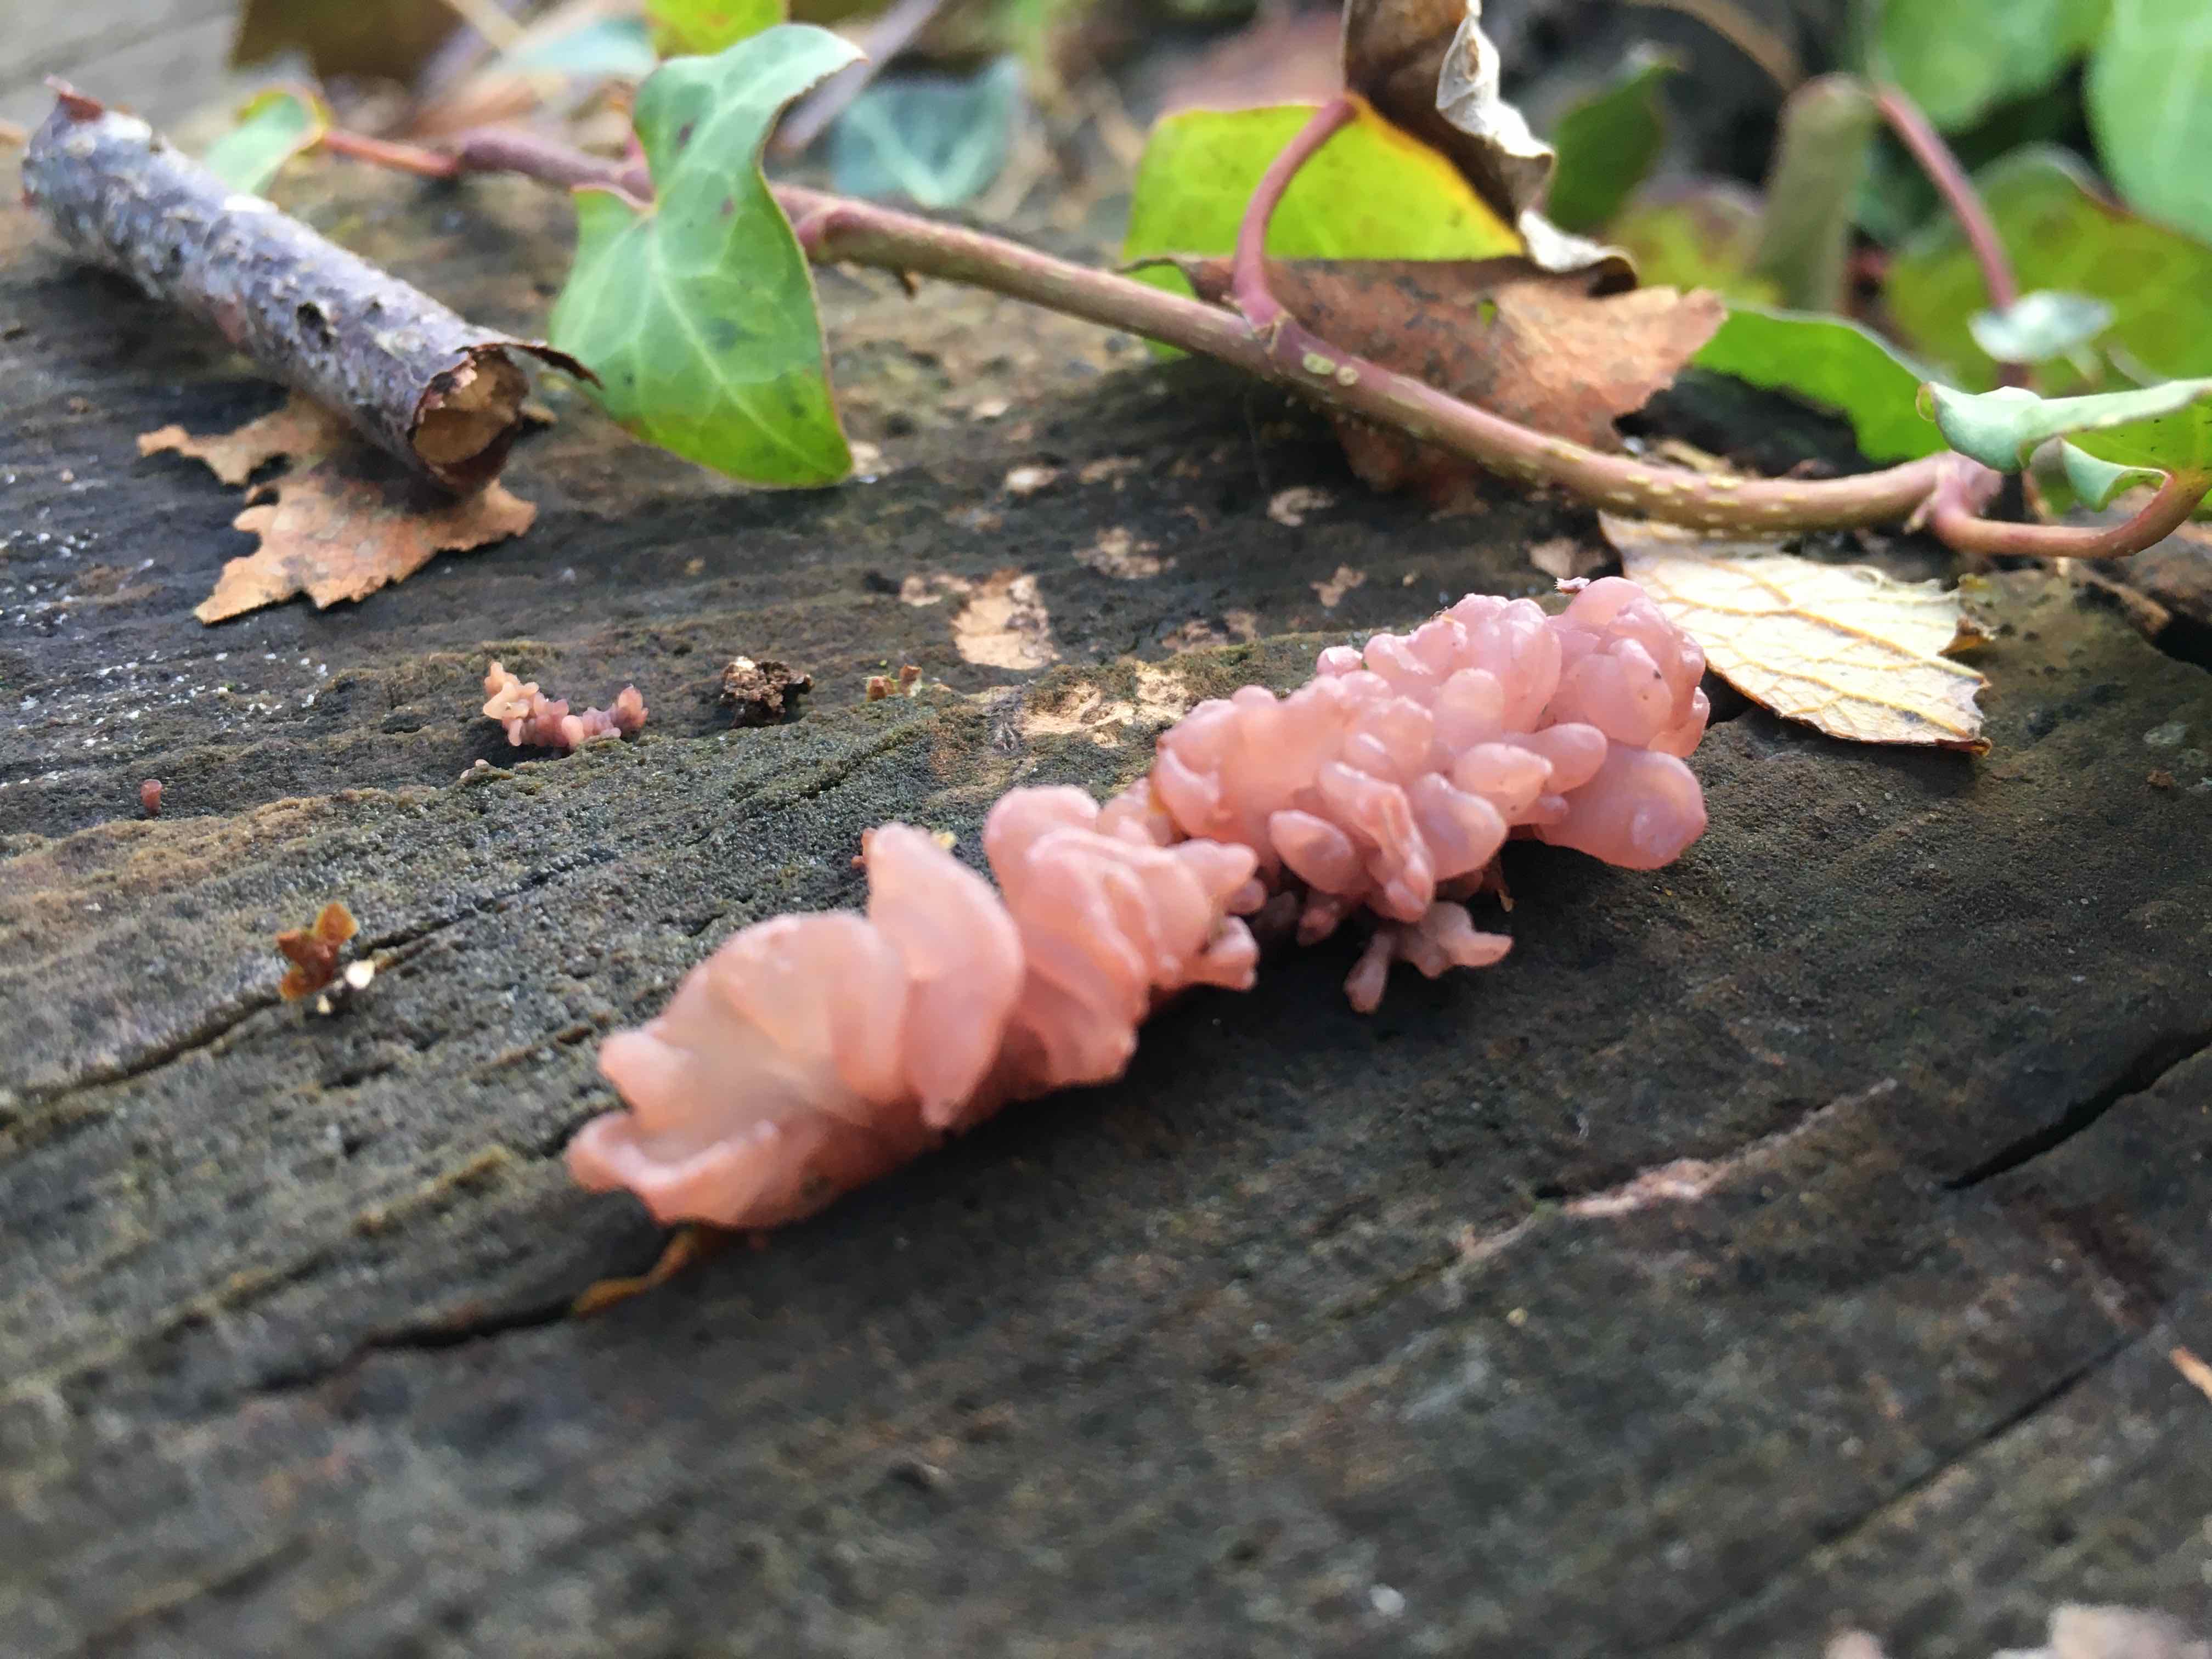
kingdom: Fungi
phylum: Ascomycota
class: Leotiomycetes
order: Helotiales
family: Gelatinodiscaceae
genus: Ascocoryne
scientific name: Ascocoryne sarcoides
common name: rødlilla sejskive
